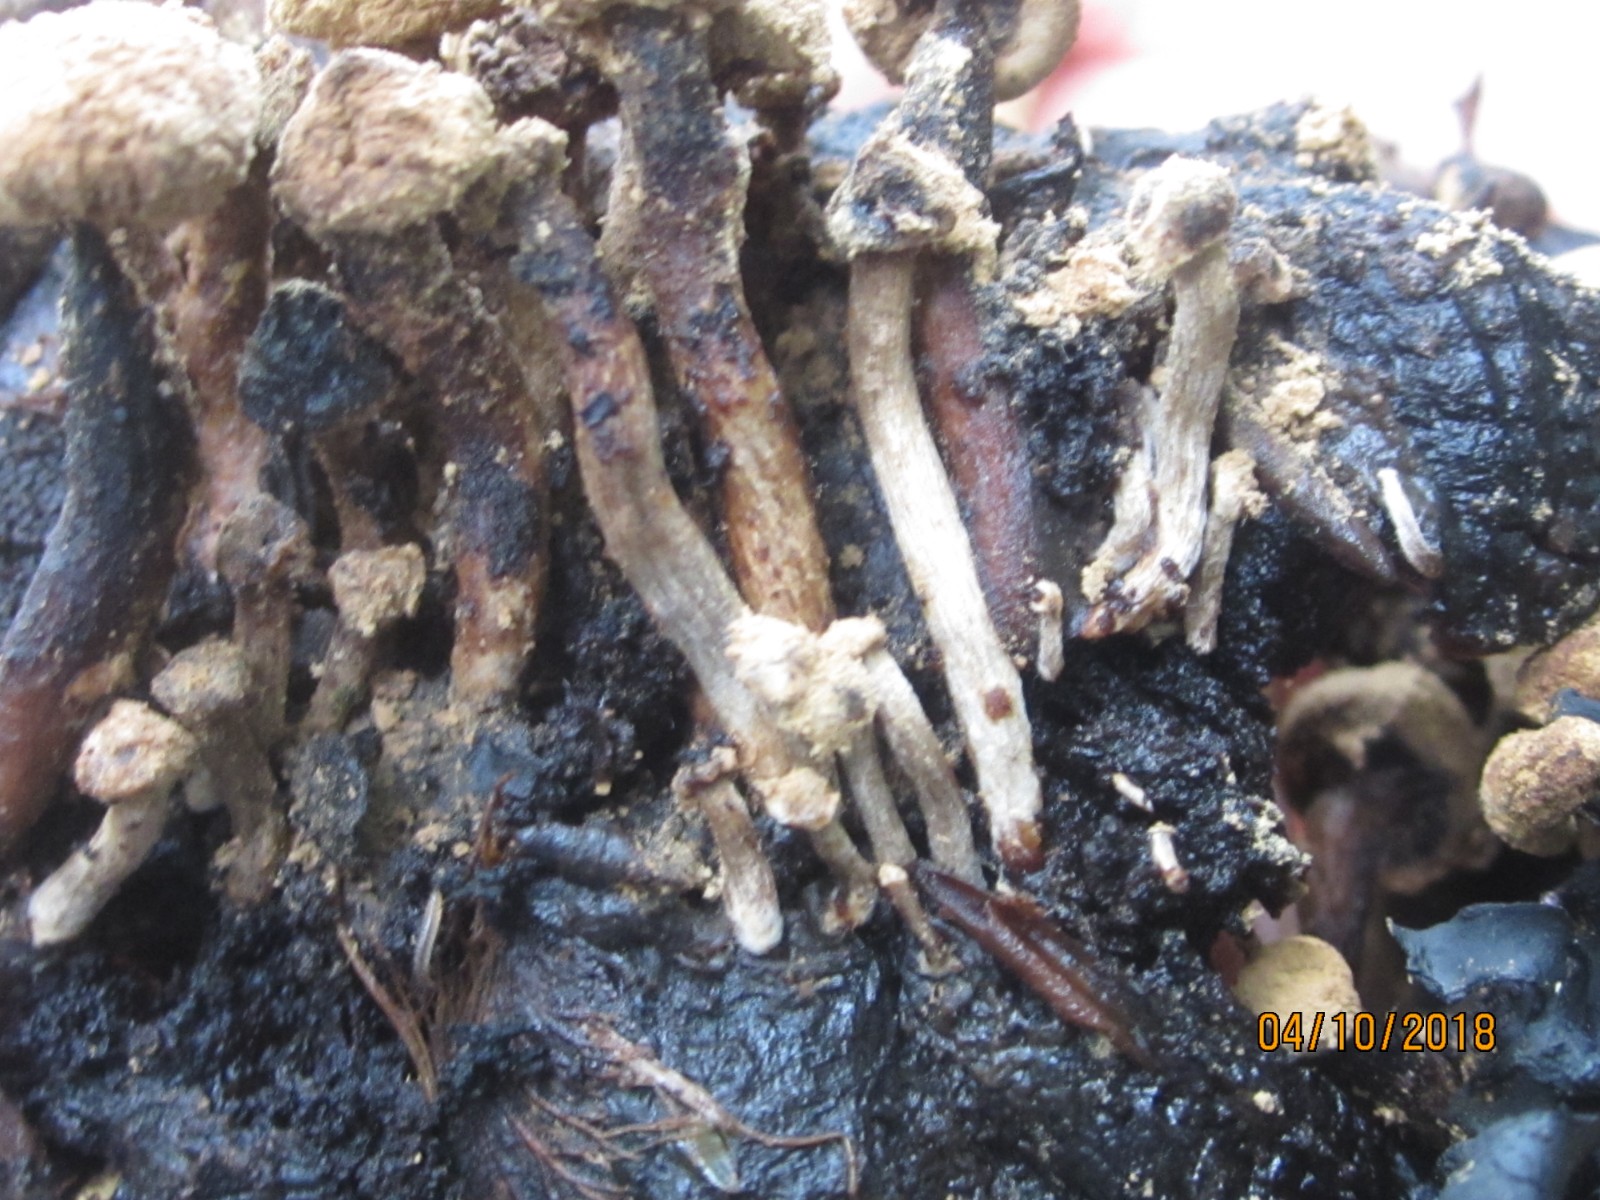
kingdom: Fungi
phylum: Basidiomycota
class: Agaricomycetes
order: Agaricales
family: Lyophyllaceae
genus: Asterophora
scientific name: Asterophora lycoperdoides
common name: brunpudret snyltehat
